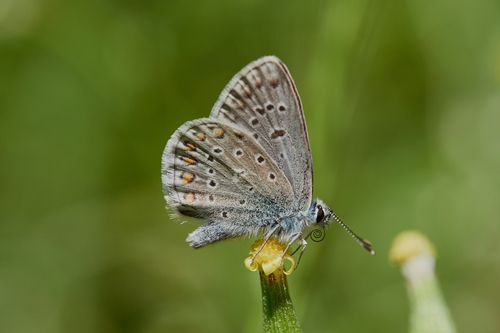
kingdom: Animalia
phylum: Arthropoda
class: Insecta
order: Lepidoptera
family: Lycaenidae
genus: Polyommatus
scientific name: Polyommatus icarus
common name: Common blue
